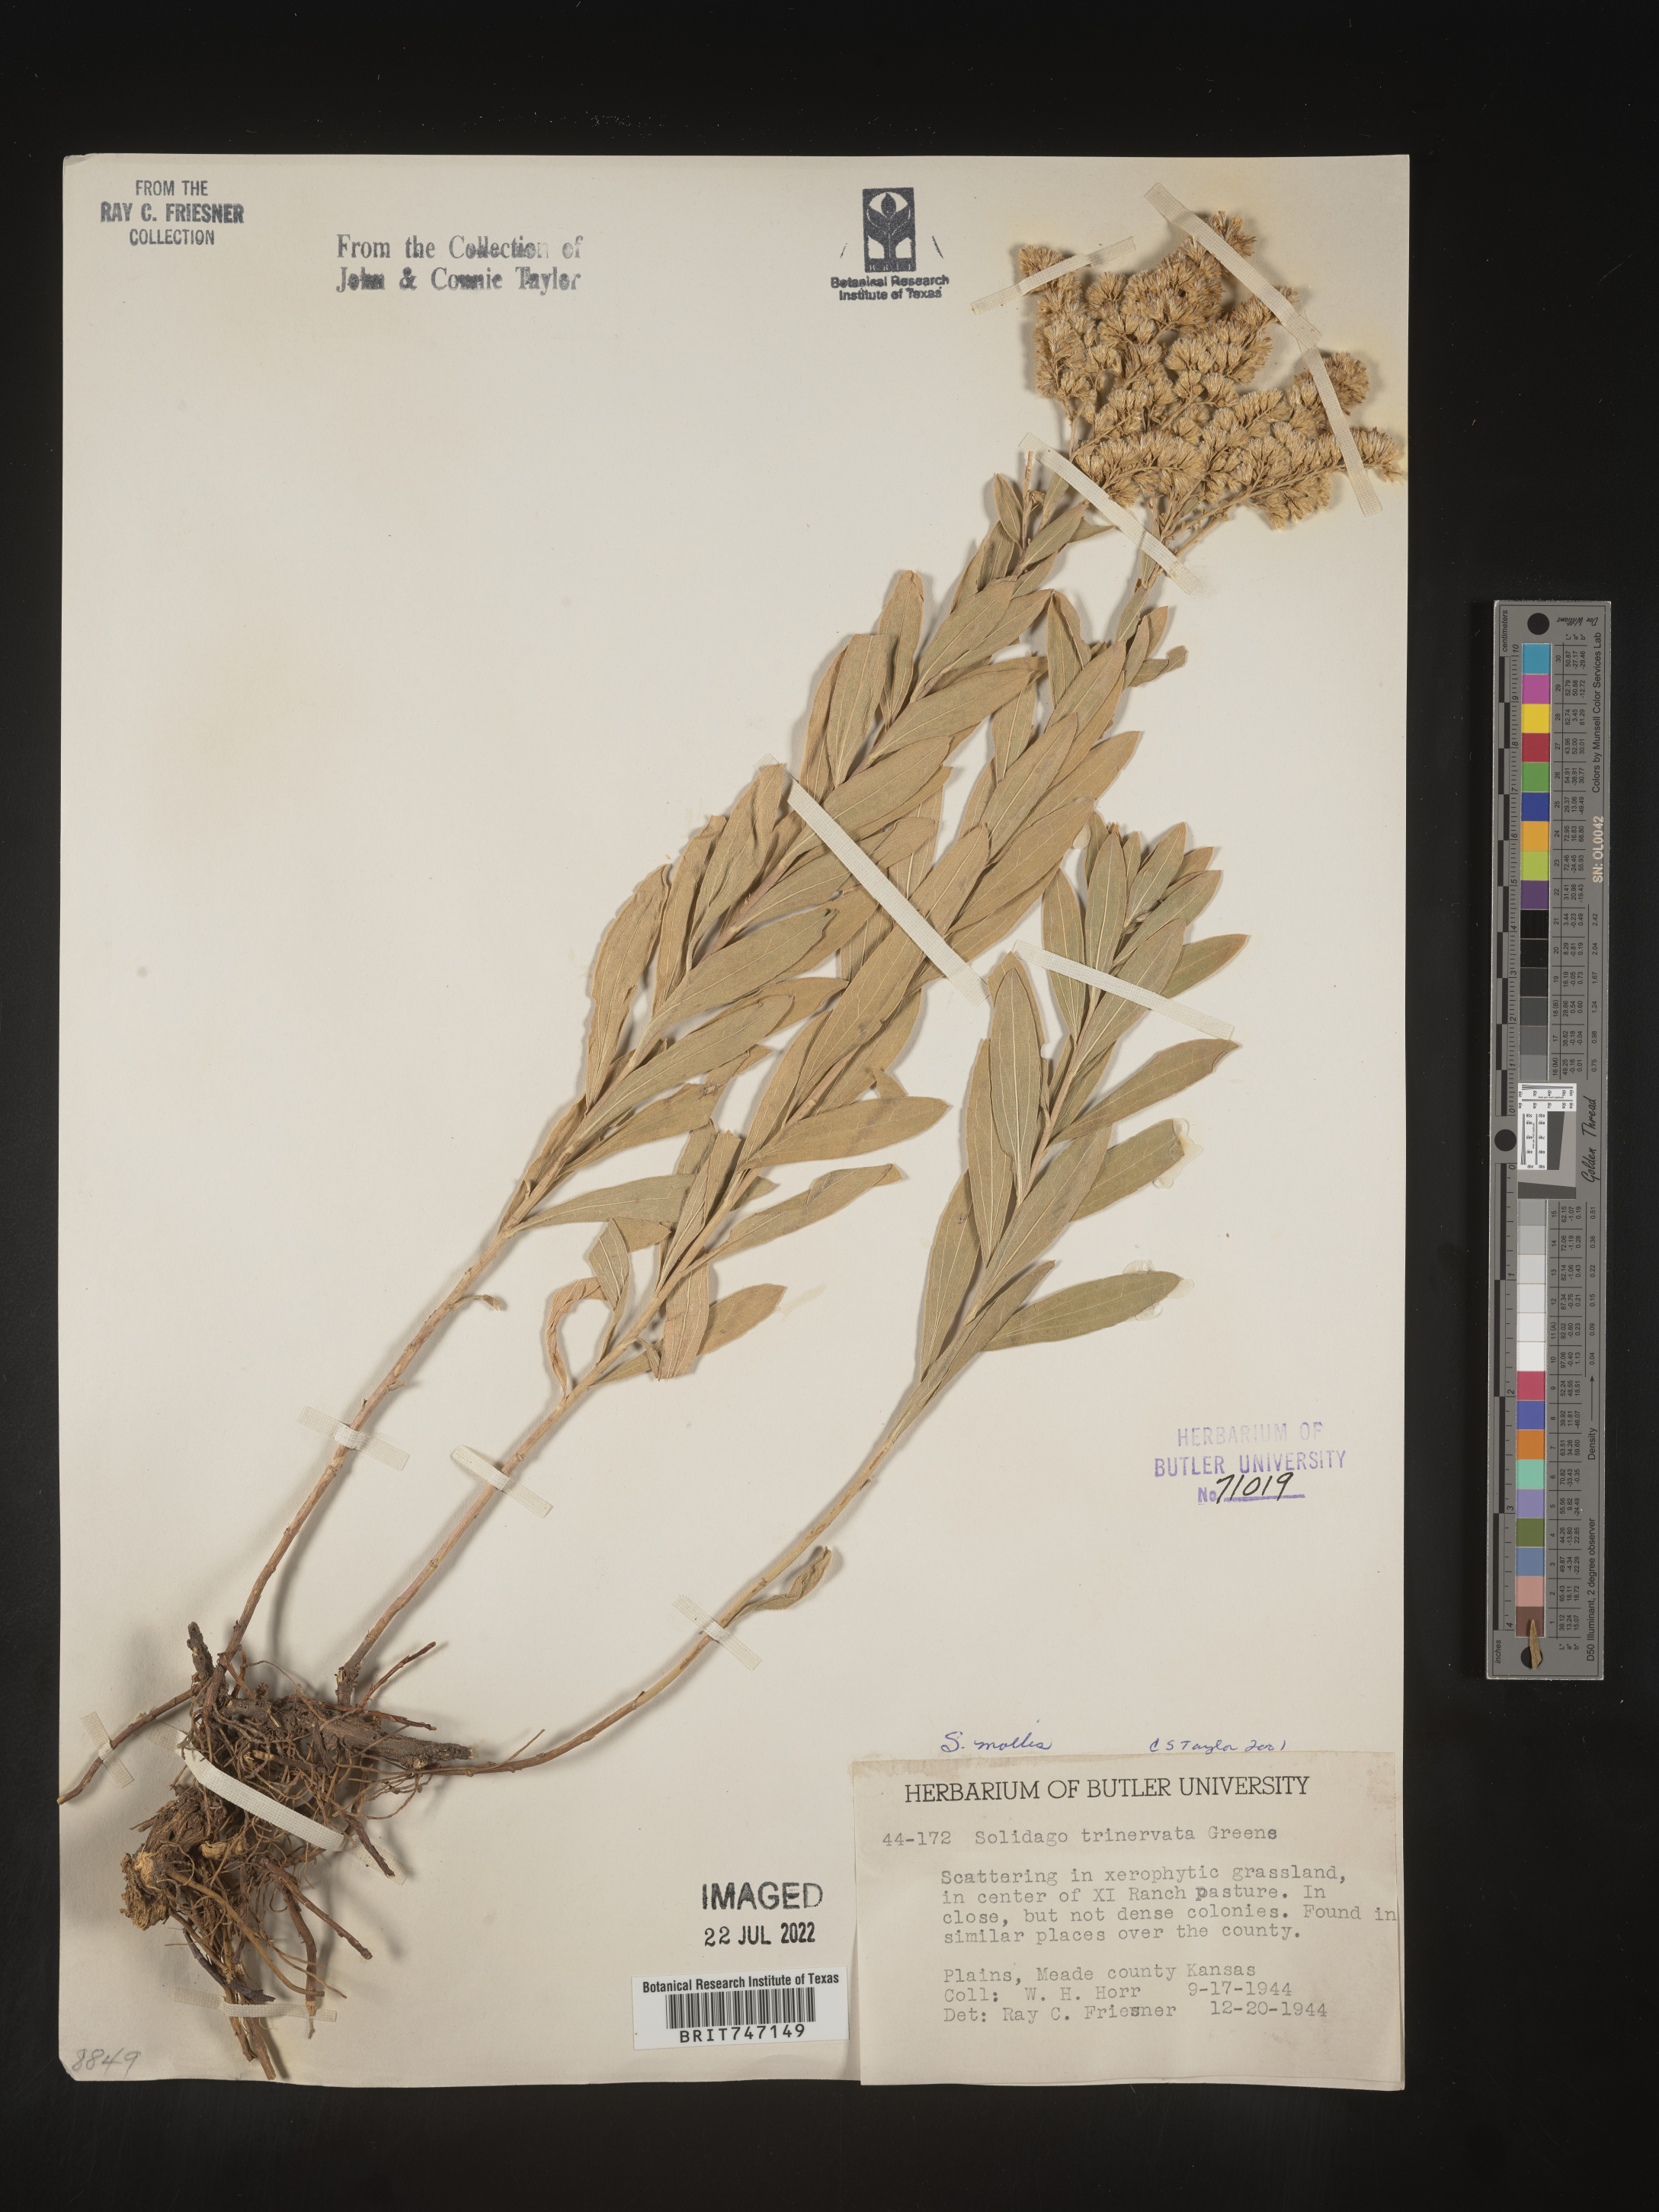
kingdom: Plantae
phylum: Tracheophyta
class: Magnoliopsida
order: Asterales
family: Asteraceae
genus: Solidago
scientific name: Solidago mollis
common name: Ashly goldenrod
